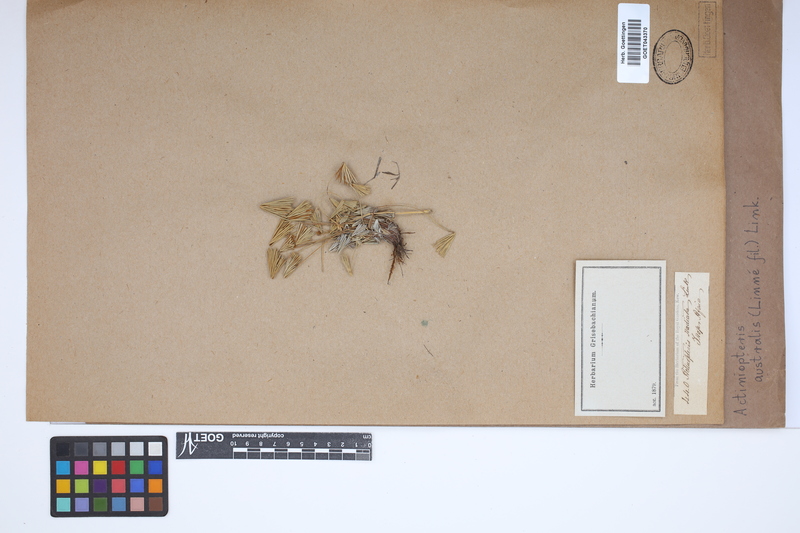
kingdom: Plantae
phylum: Tracheophyta
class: Polypodiopsida
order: Polypodiales
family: Pteridaceae
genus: Actiniopteris
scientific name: Actiniopteris australis
